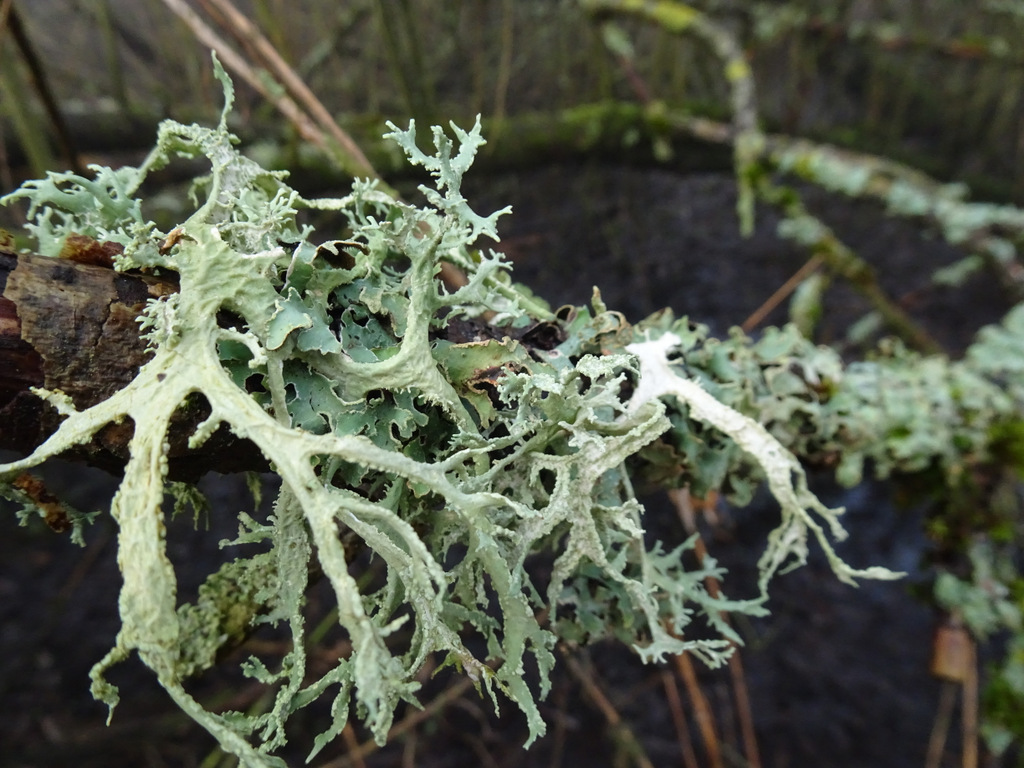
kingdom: Fungi
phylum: Ascomycota
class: Lecanoromycetes
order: Lecanorales
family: Parmeliaceae
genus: Evernia
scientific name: Evernia prunastri
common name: almindelig slåenlav
